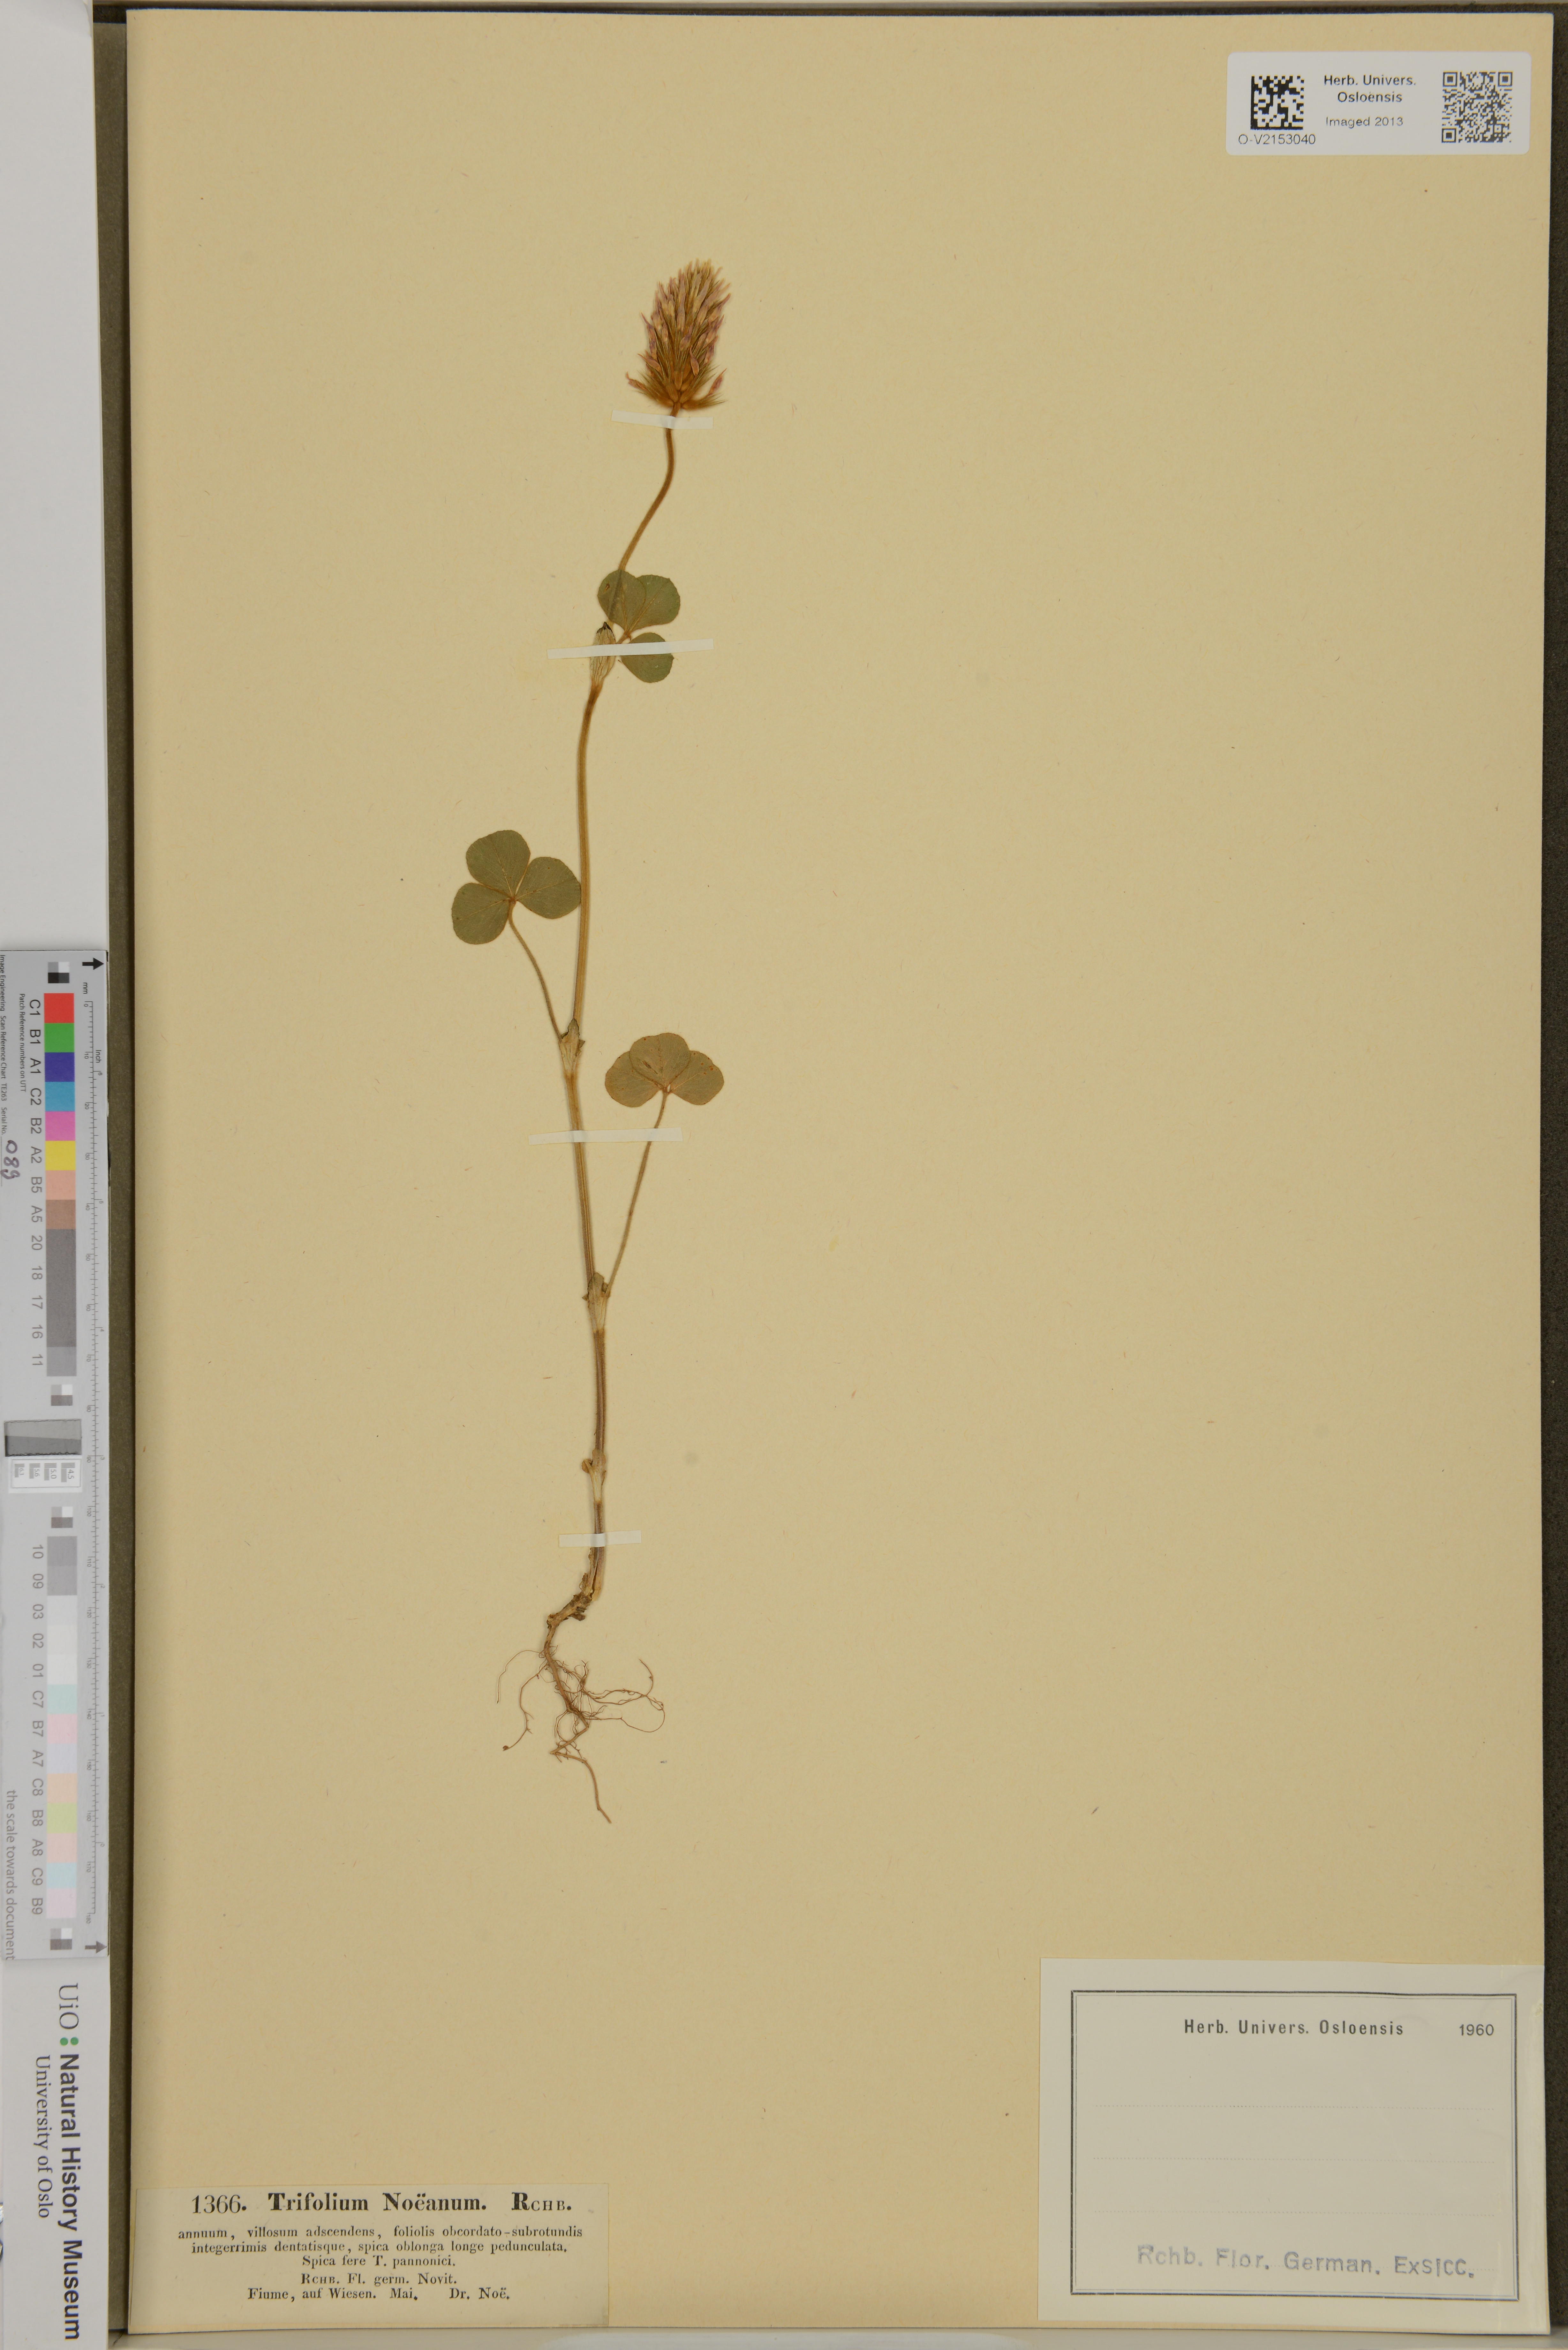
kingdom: Plantae
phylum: Tracheophyta
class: Magnoliopsida
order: Fabales
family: Fabaceae
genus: Trifolium
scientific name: Trifolium incarnatum
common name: Crimson clover
